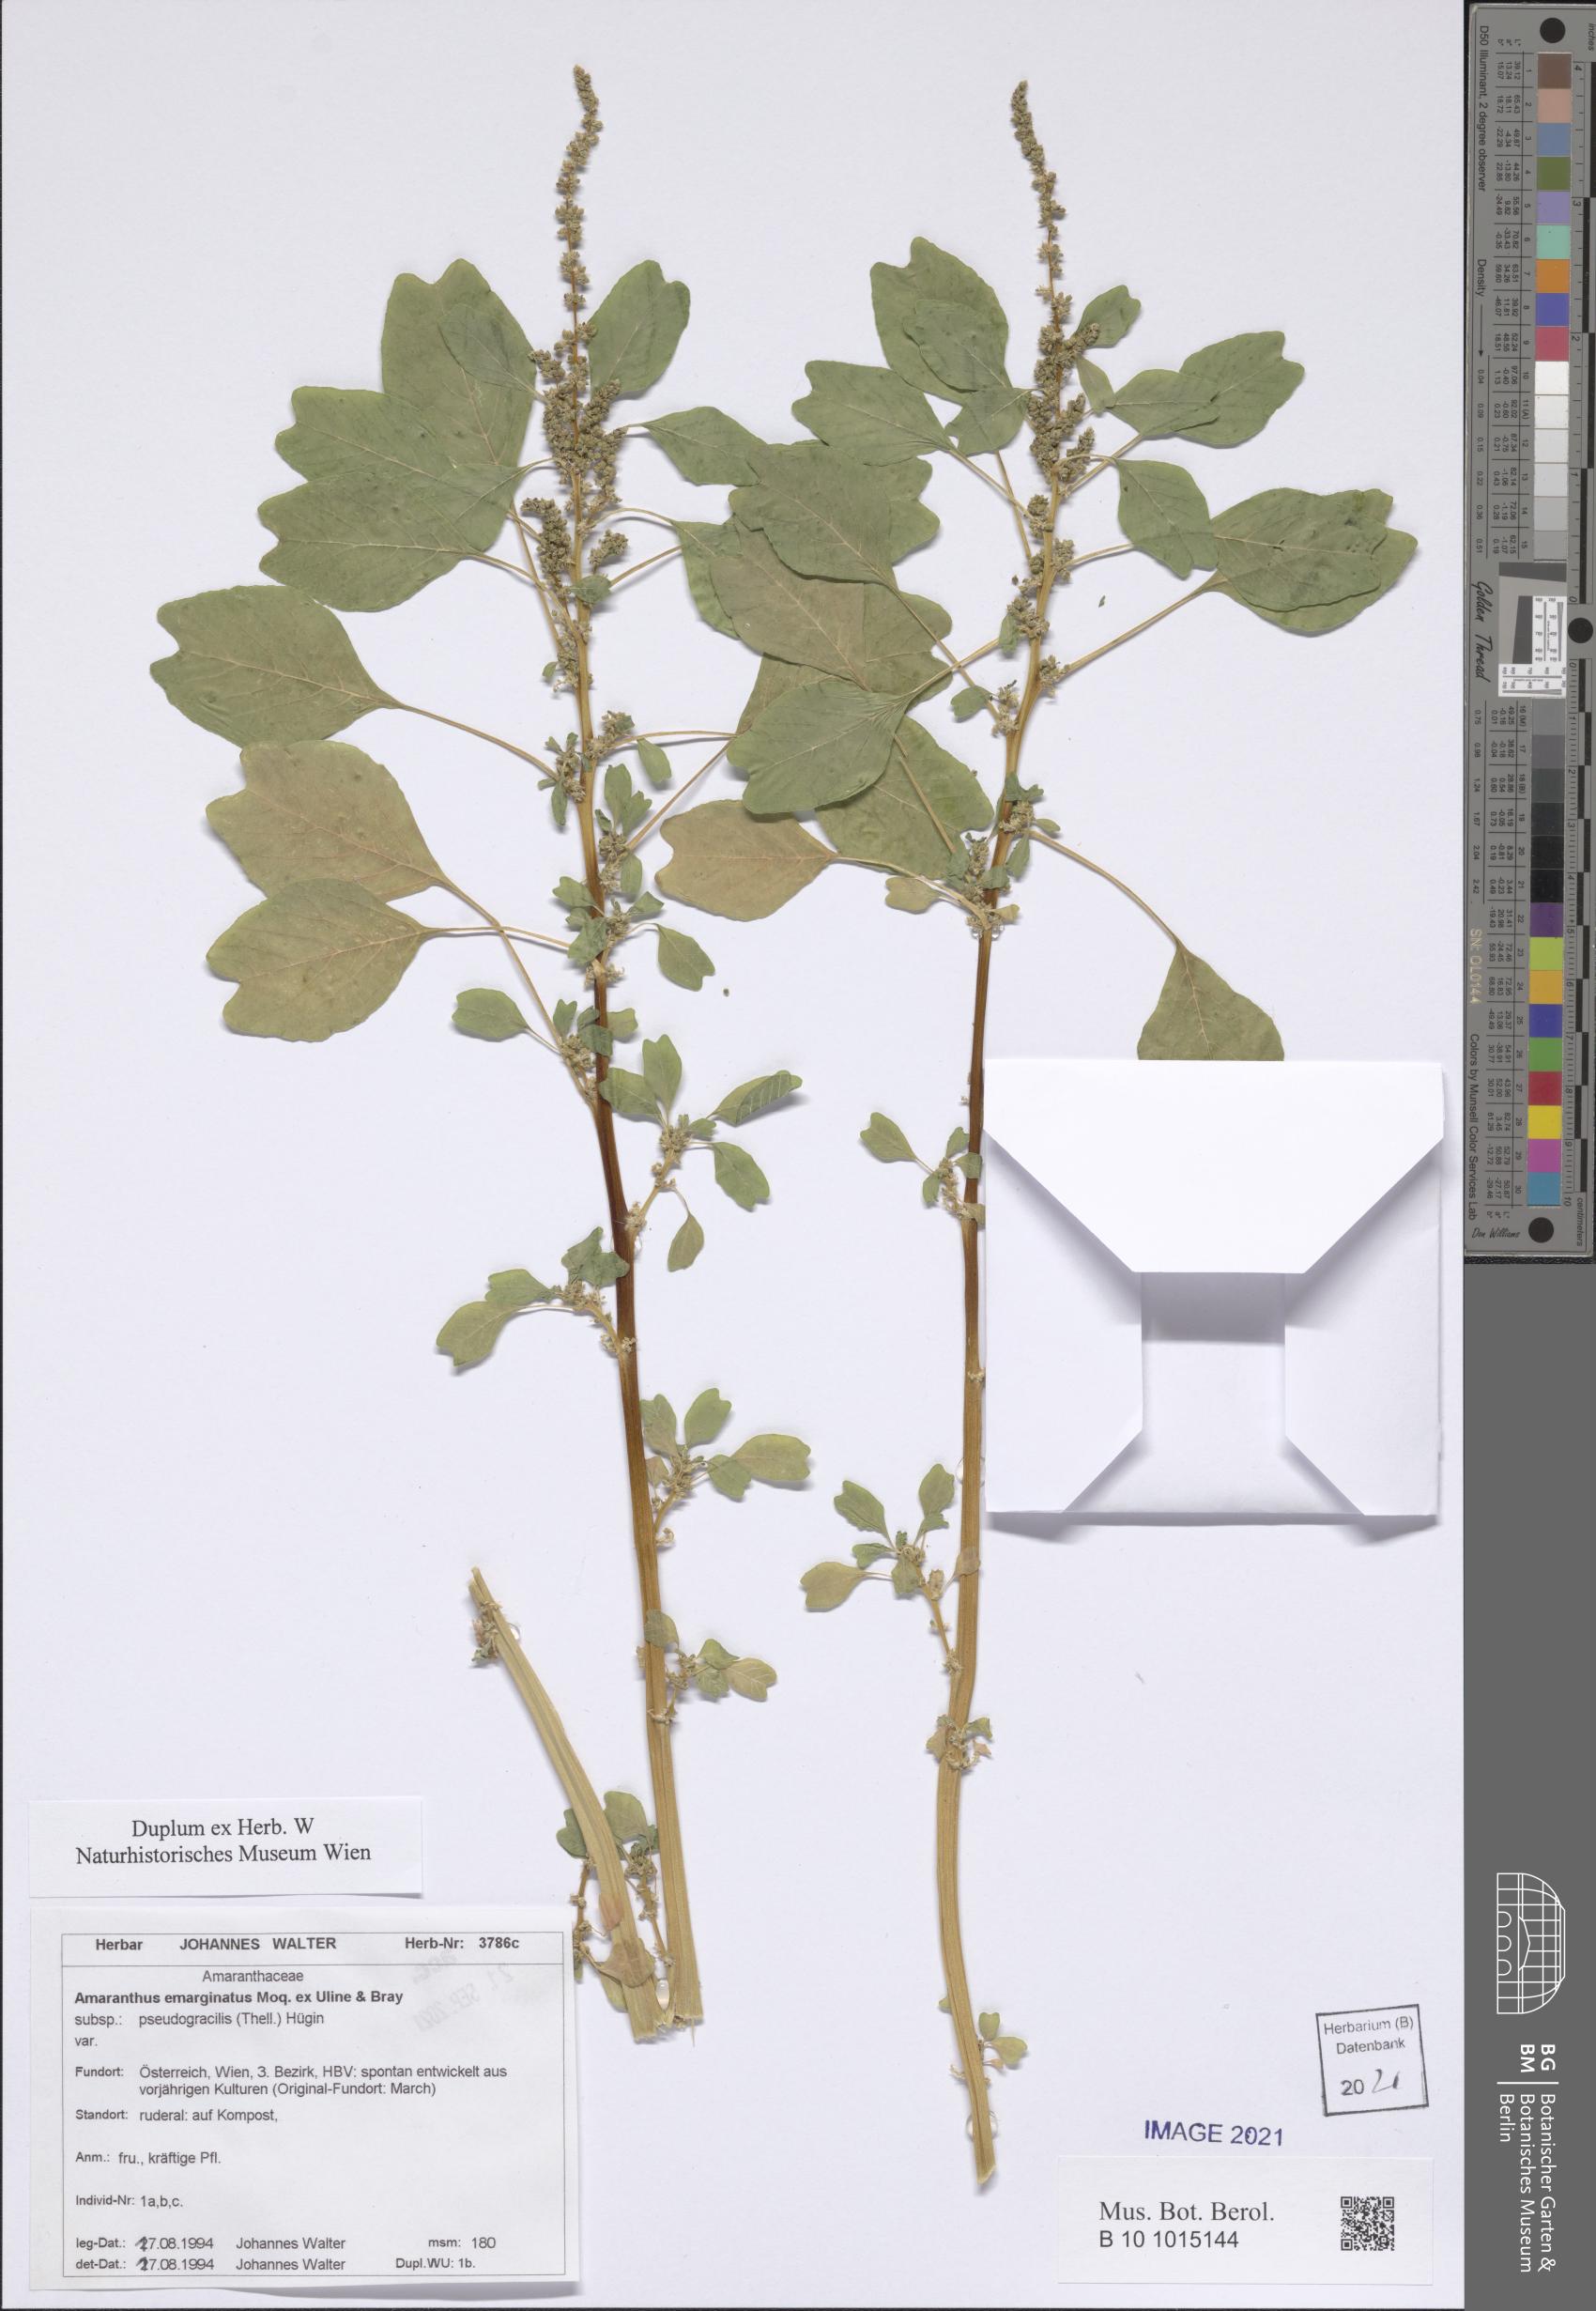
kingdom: Plantae
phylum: Tracheophyta
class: Magnoliopsida
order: Caryophyllales
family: Amaranthaceae
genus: Amaranthus
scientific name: Amaranthus emarginatus
